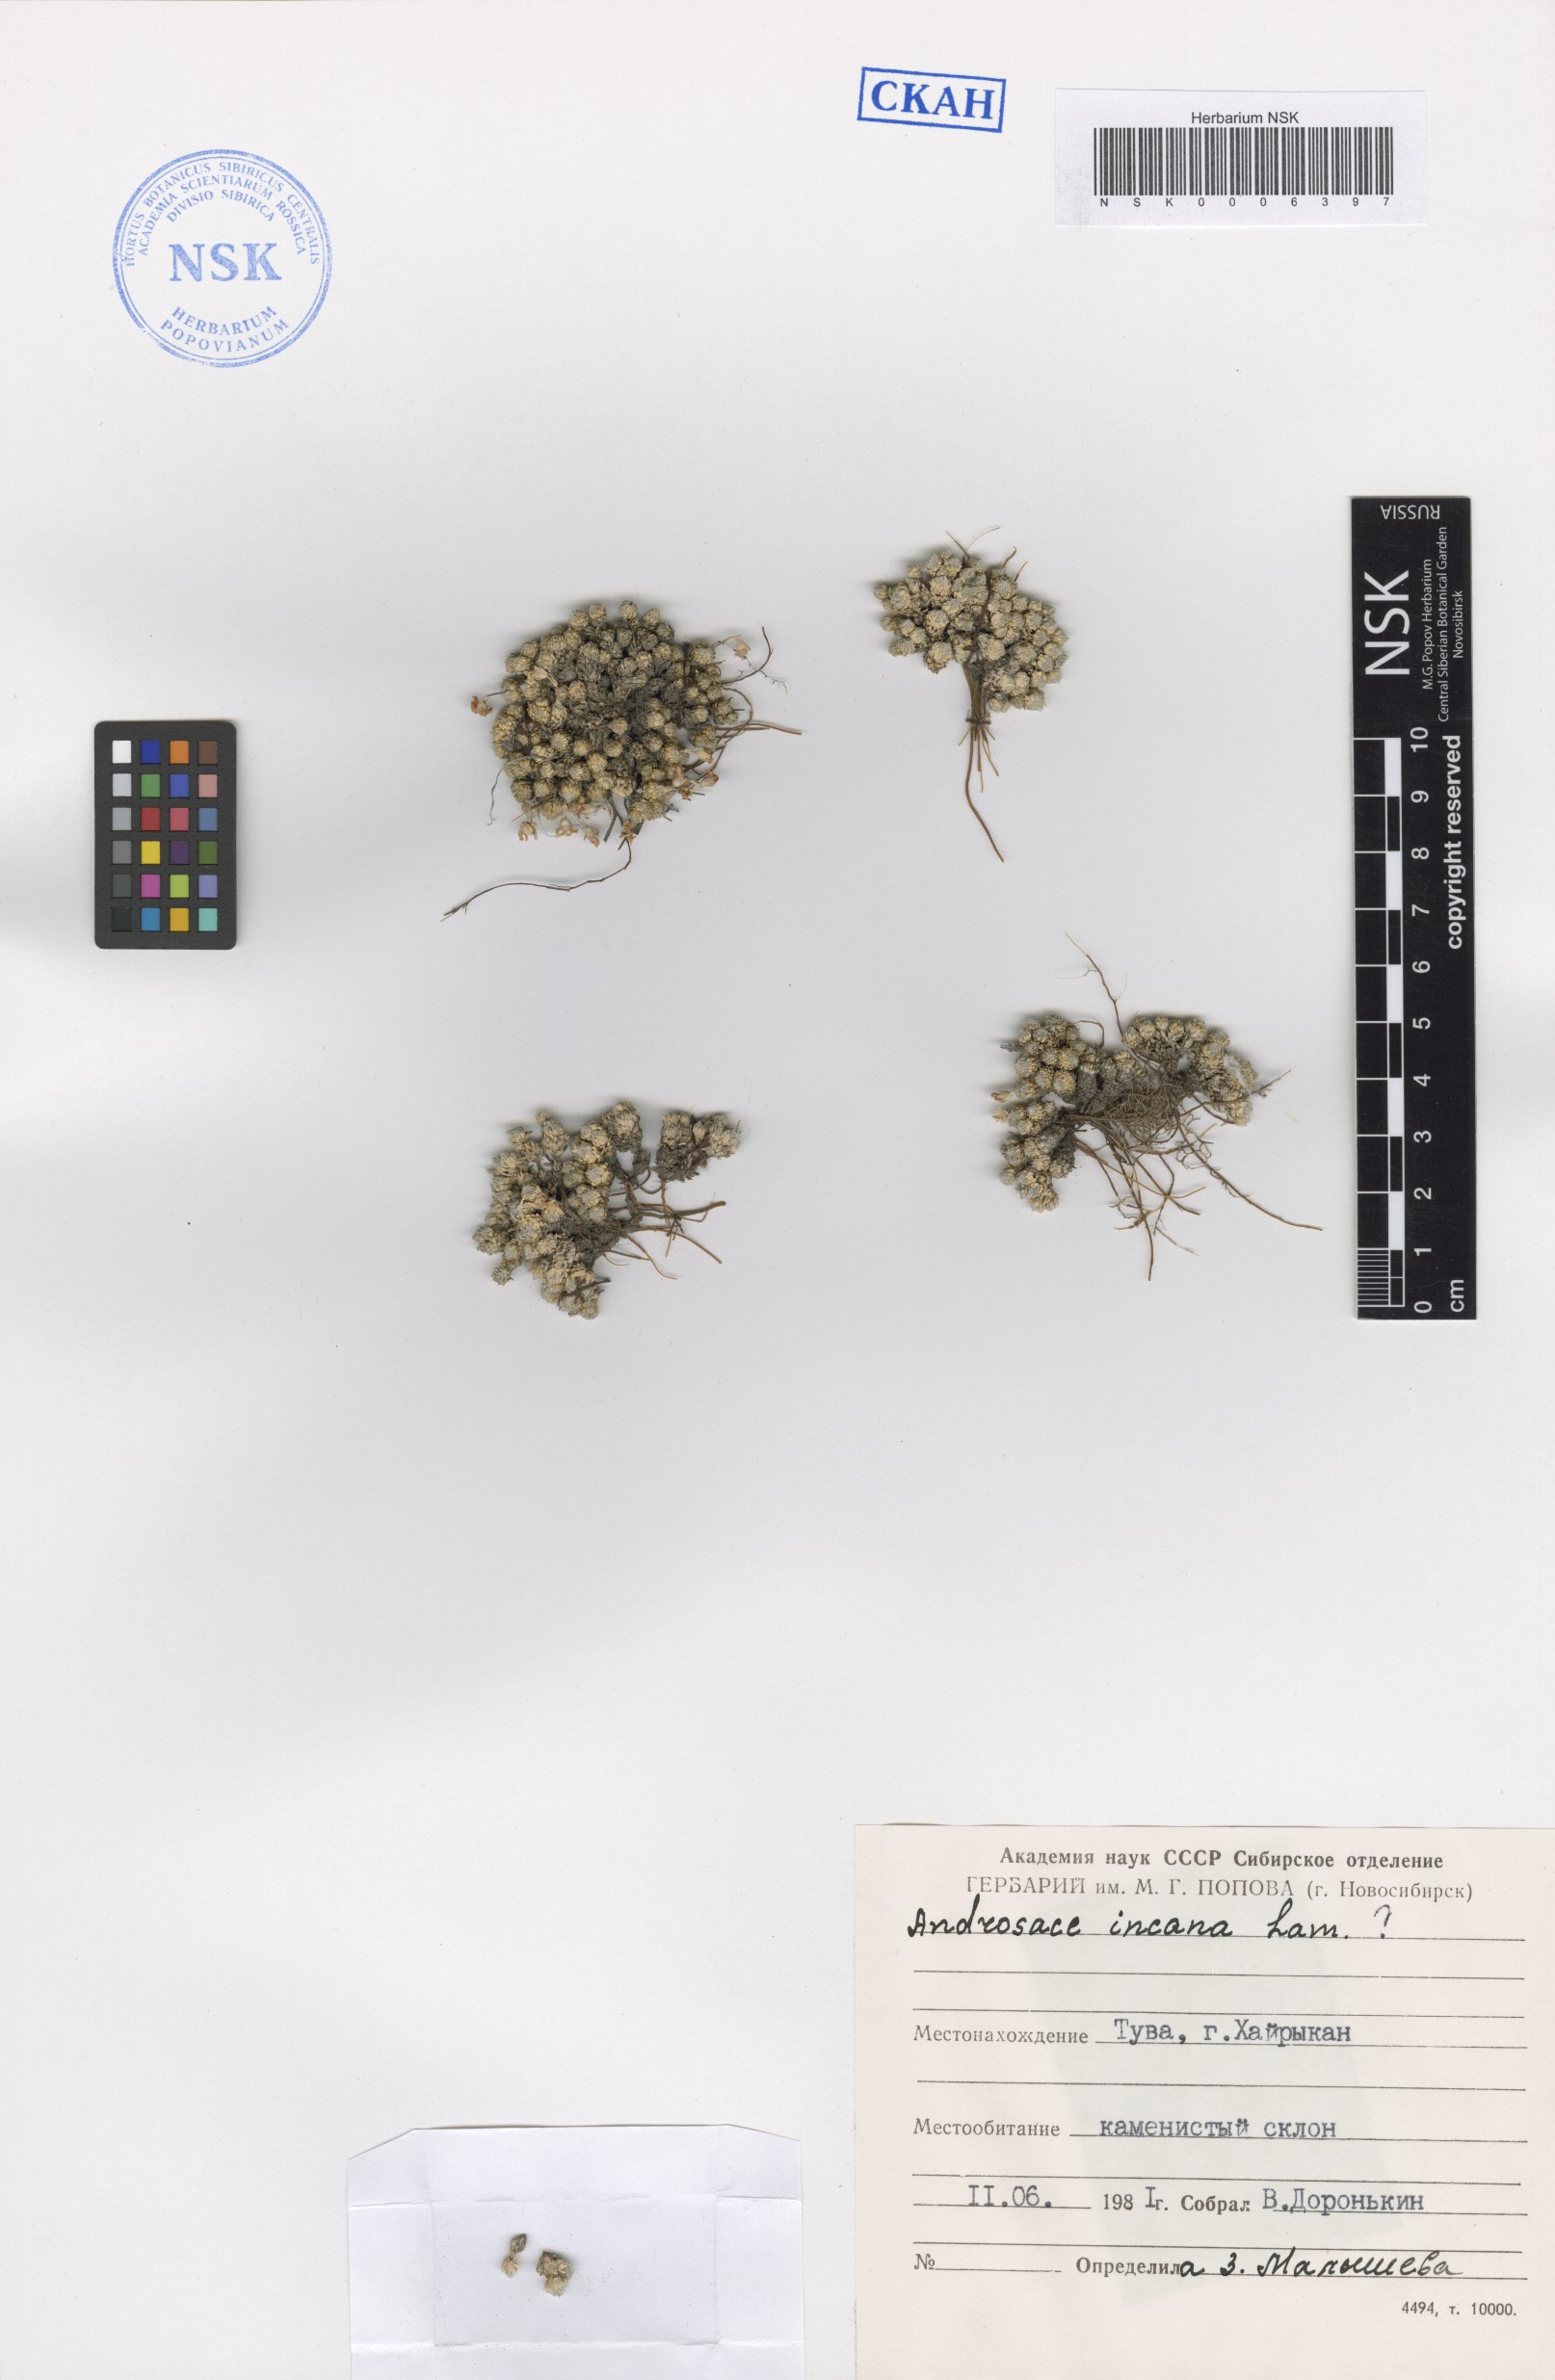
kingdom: Plantae
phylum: Tracheophyta
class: Magnoliopsida
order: Ericales
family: Primulaceae
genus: Androsace
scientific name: Androsace incana
